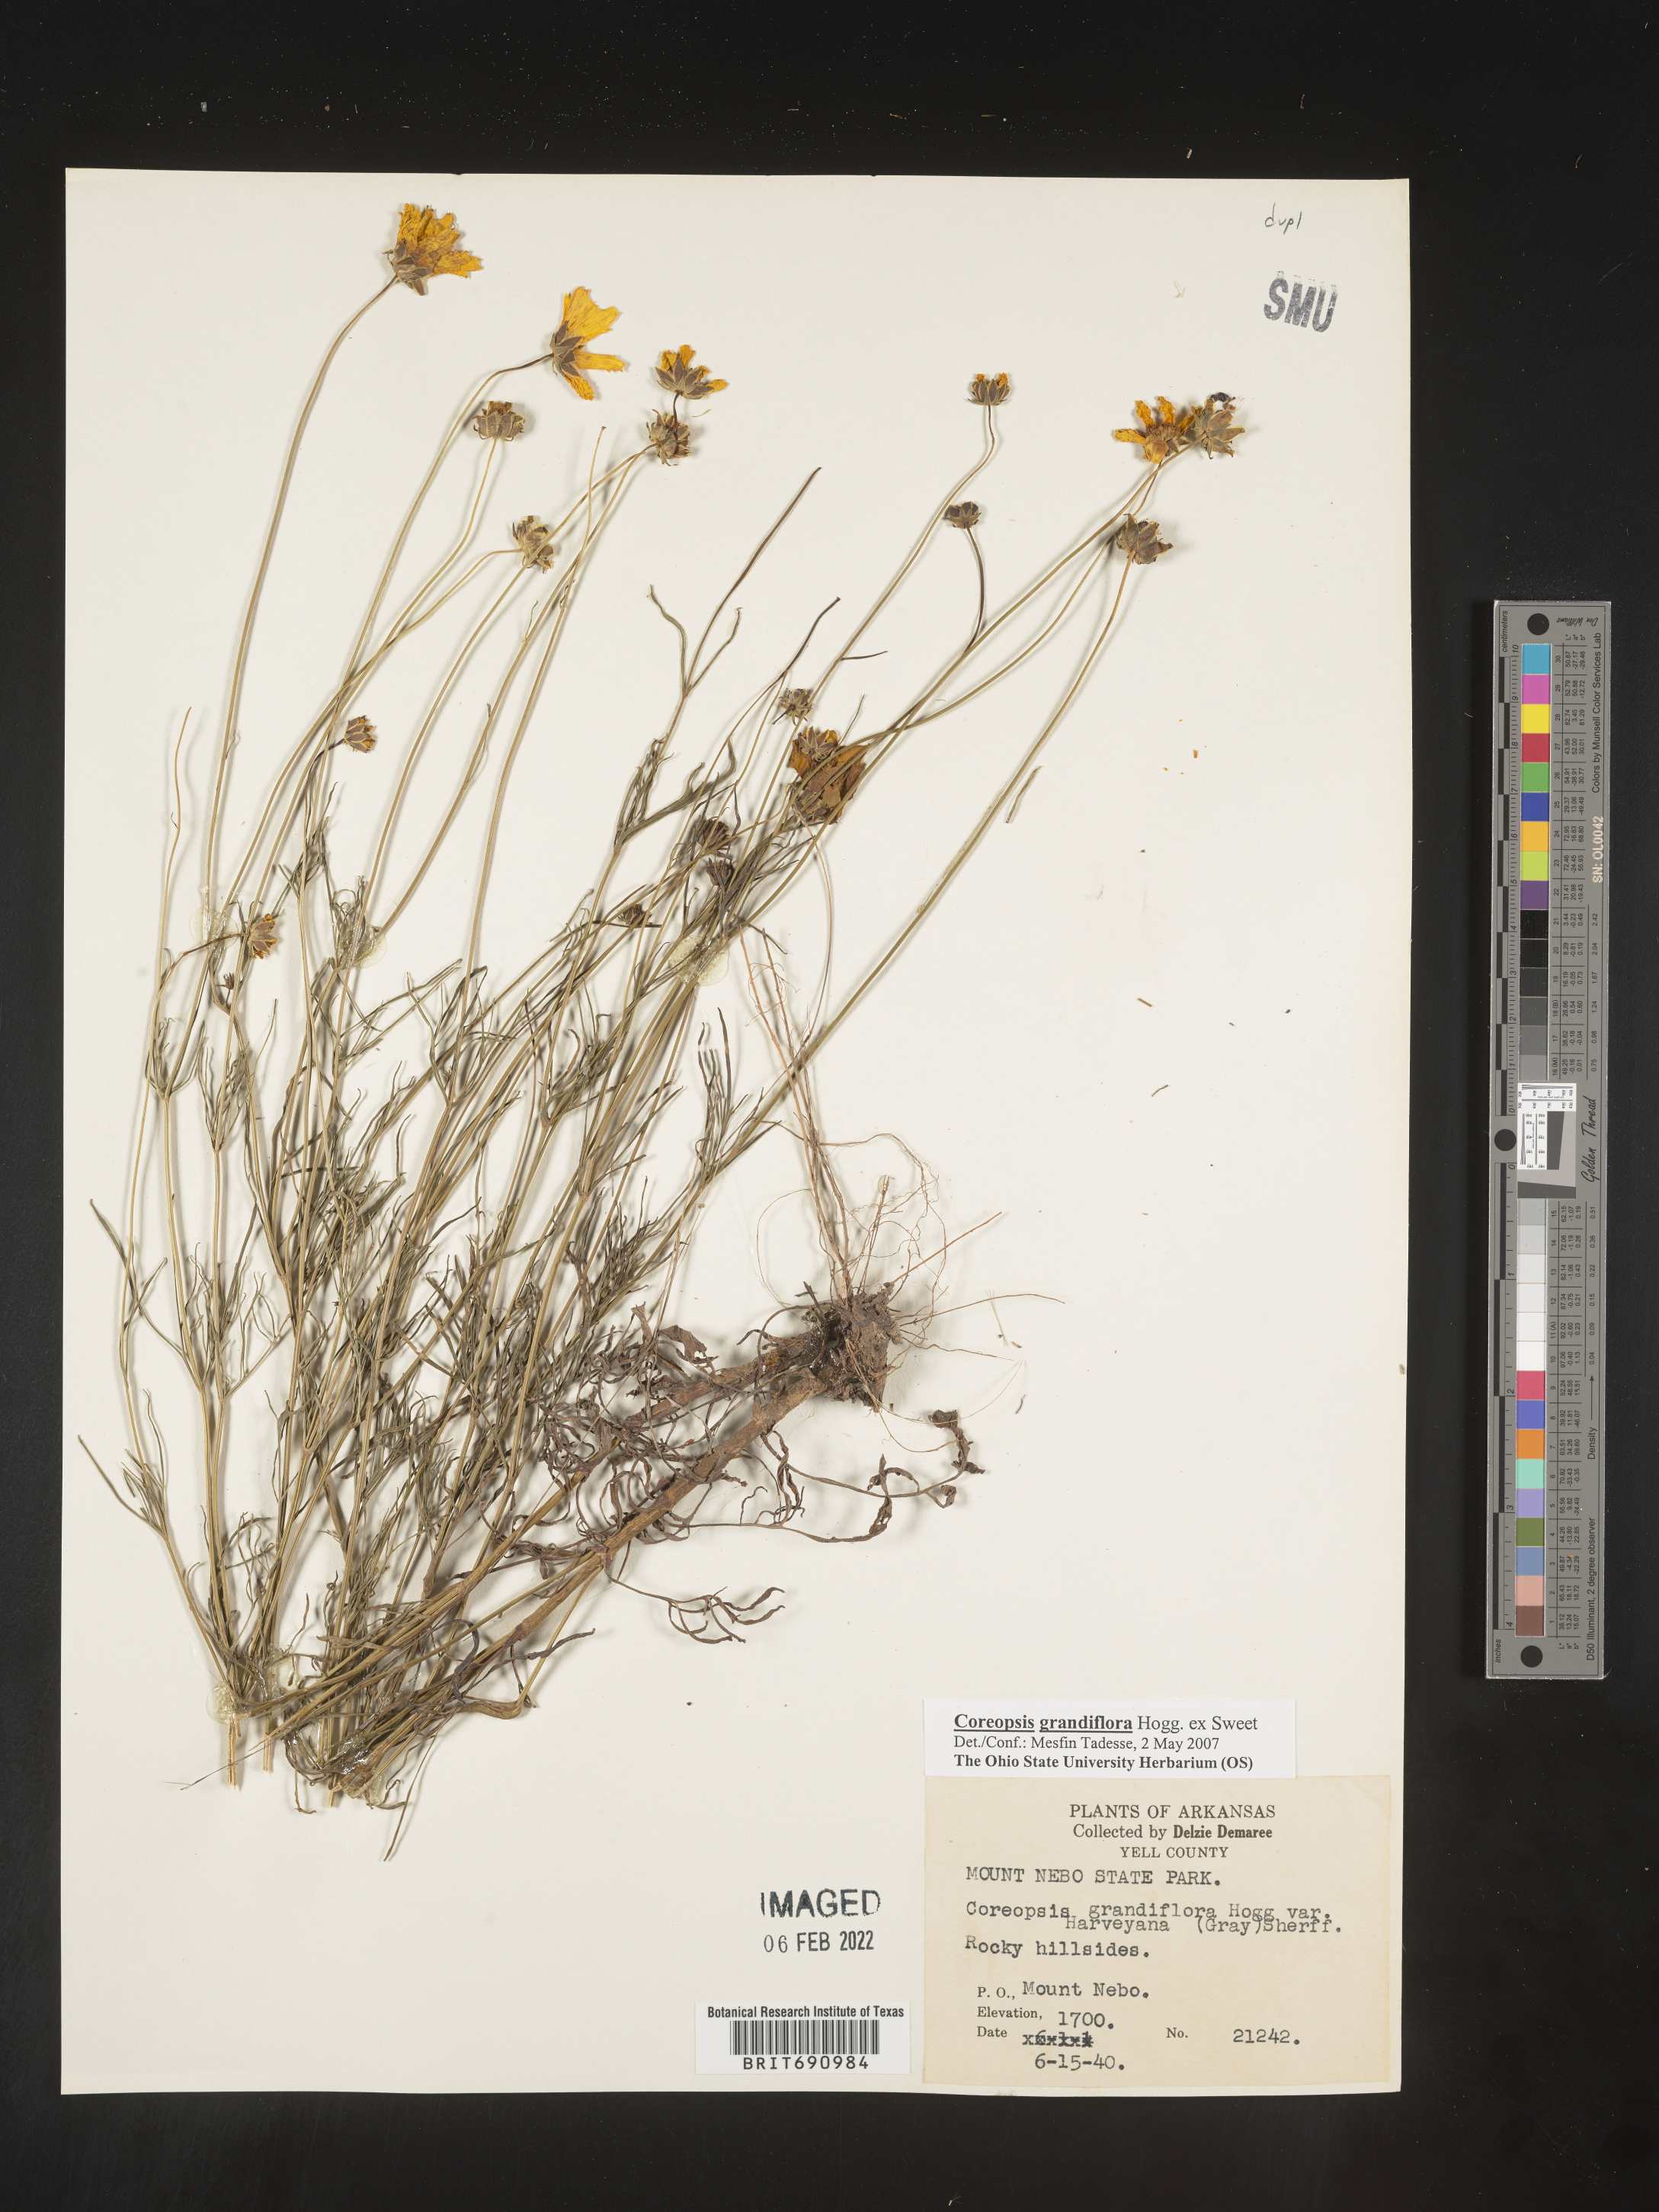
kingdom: Plantae
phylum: Tracheophyta
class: Magnoliopsida
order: Asterales
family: Asteraceae
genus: Coreopsis
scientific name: Coreopsis grandiflora
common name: Large-flowered tickseed
